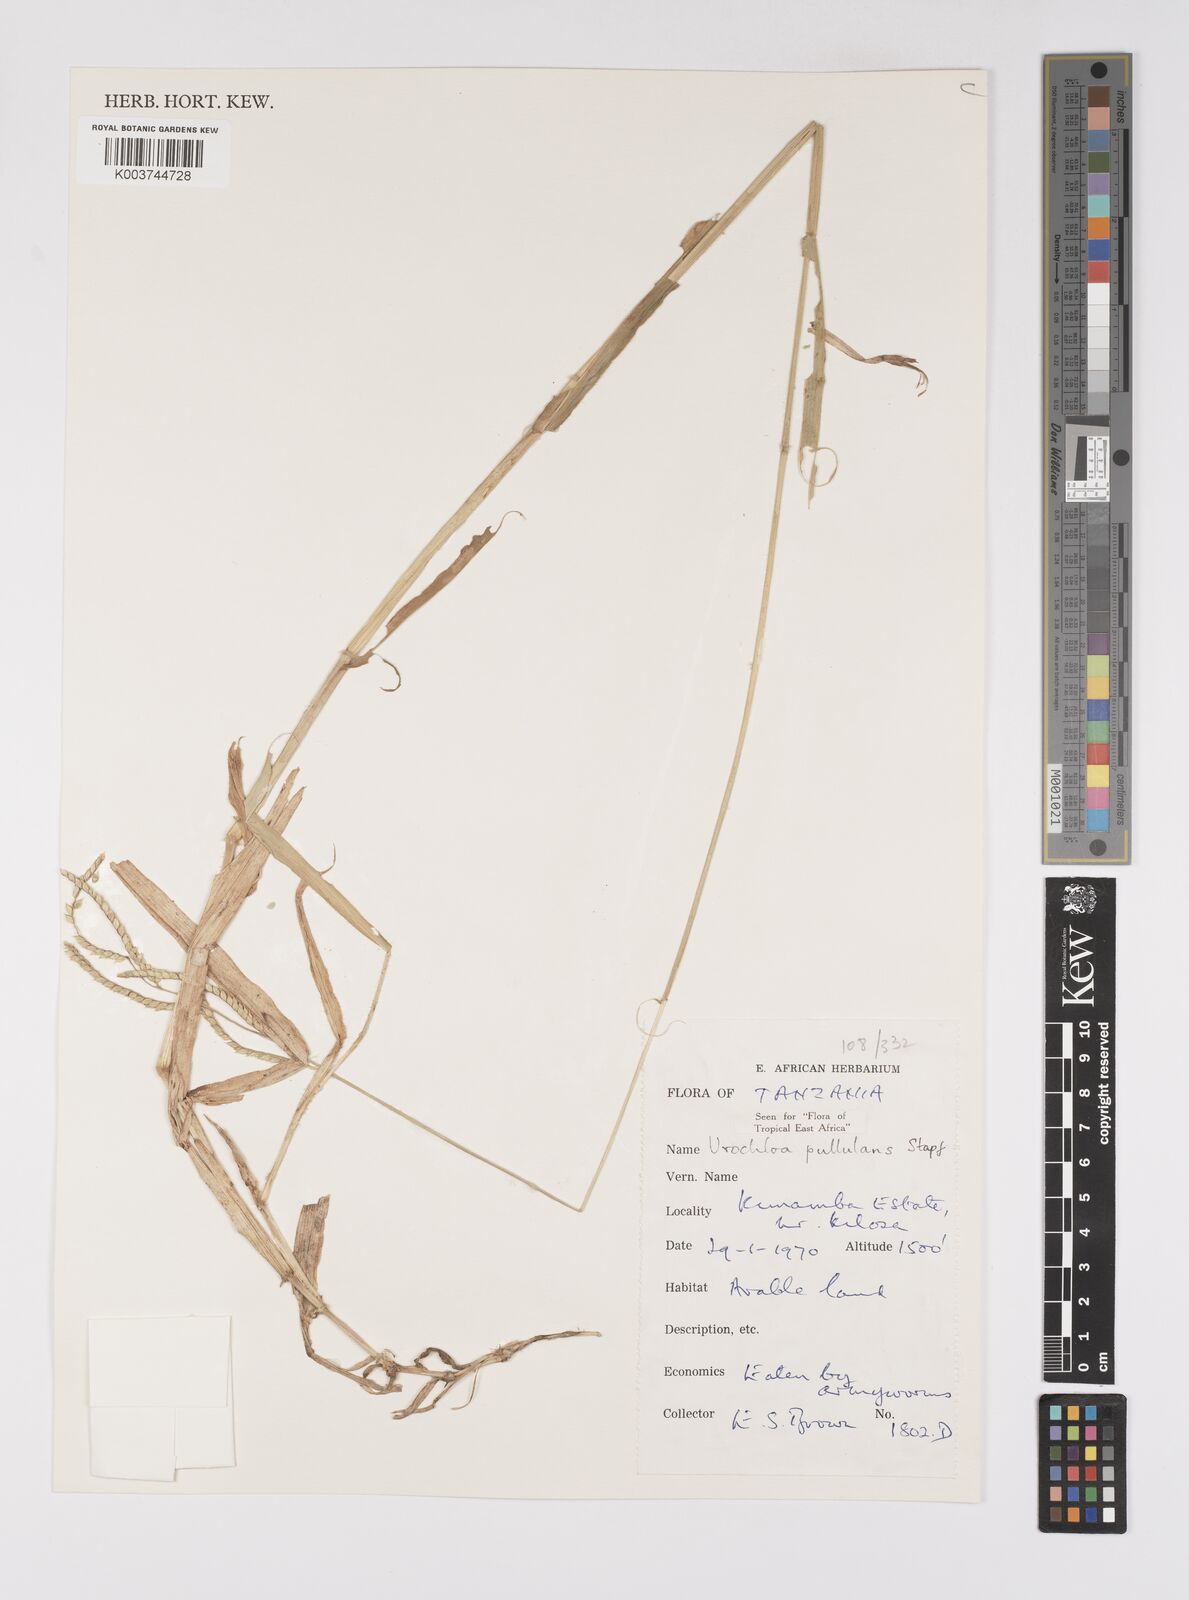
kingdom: Plantae
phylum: Tracheophyta
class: Liliopsida
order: Poales
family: Poaceae
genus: Urochloa
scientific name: Urochloa trichopus
